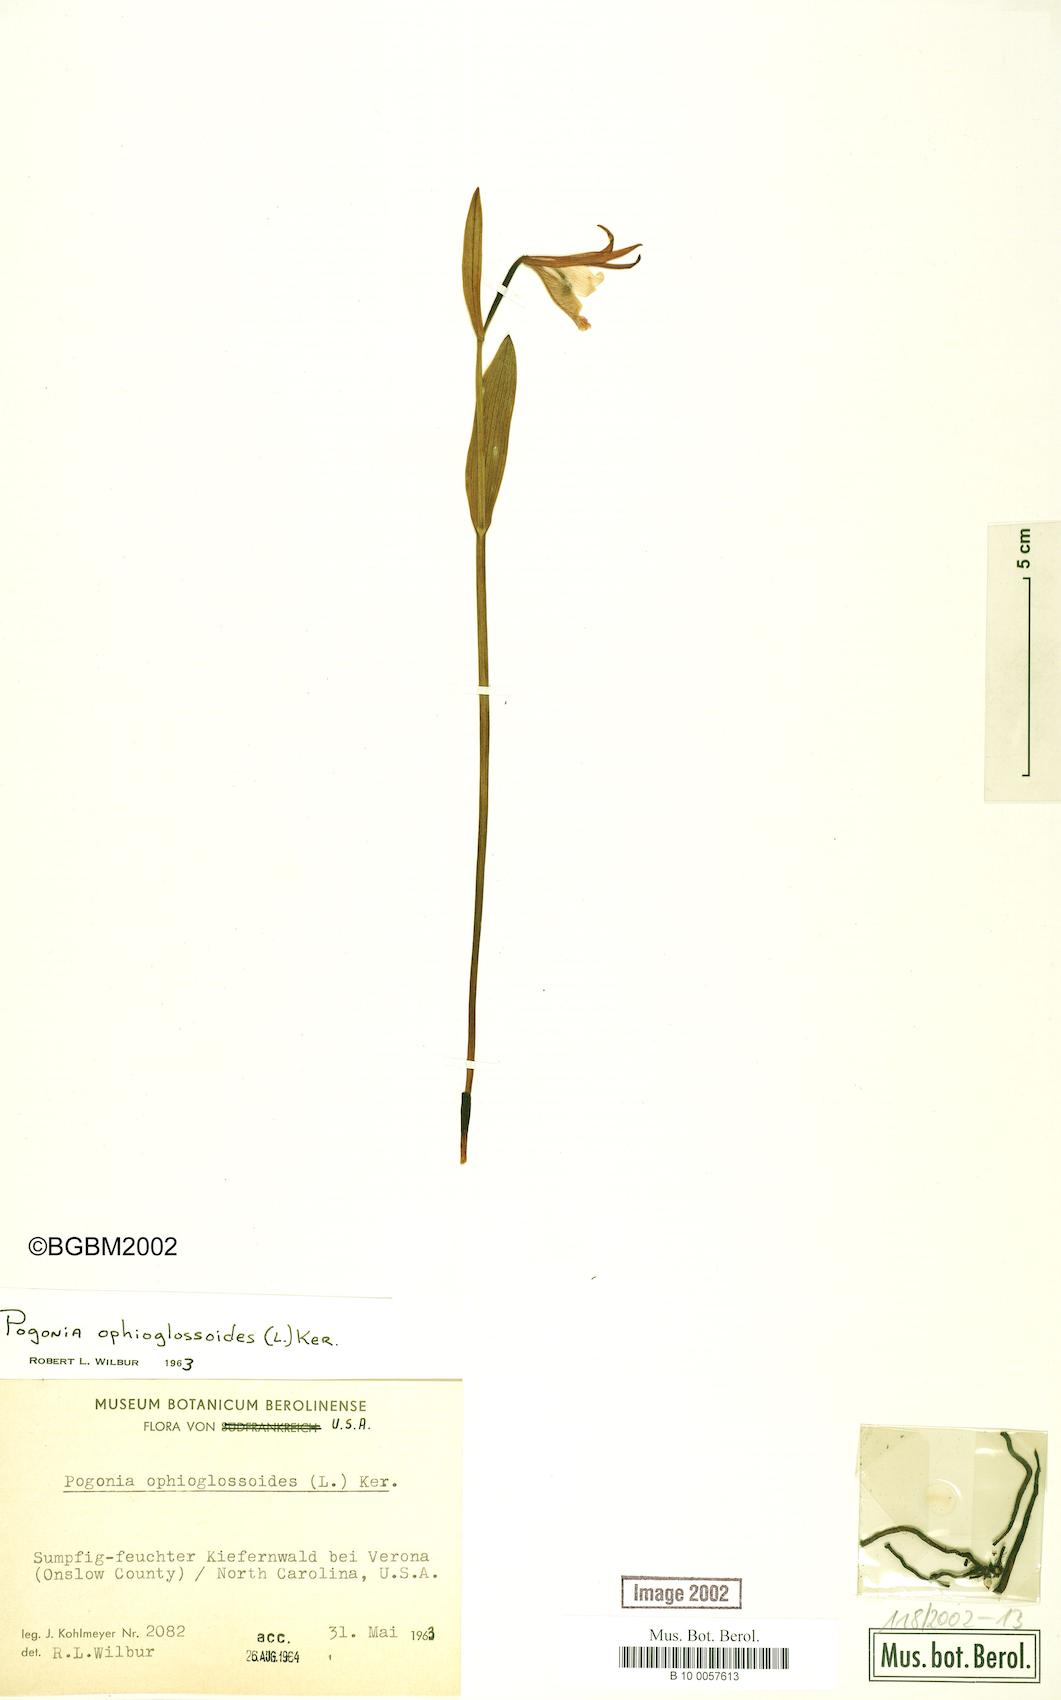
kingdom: Plantae
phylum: Tracheophyta
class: Liliopsida
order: Asparagales
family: Orchidaceae
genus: Pogonia
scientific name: Pogonia ophioglossoides
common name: Rose pogonia
